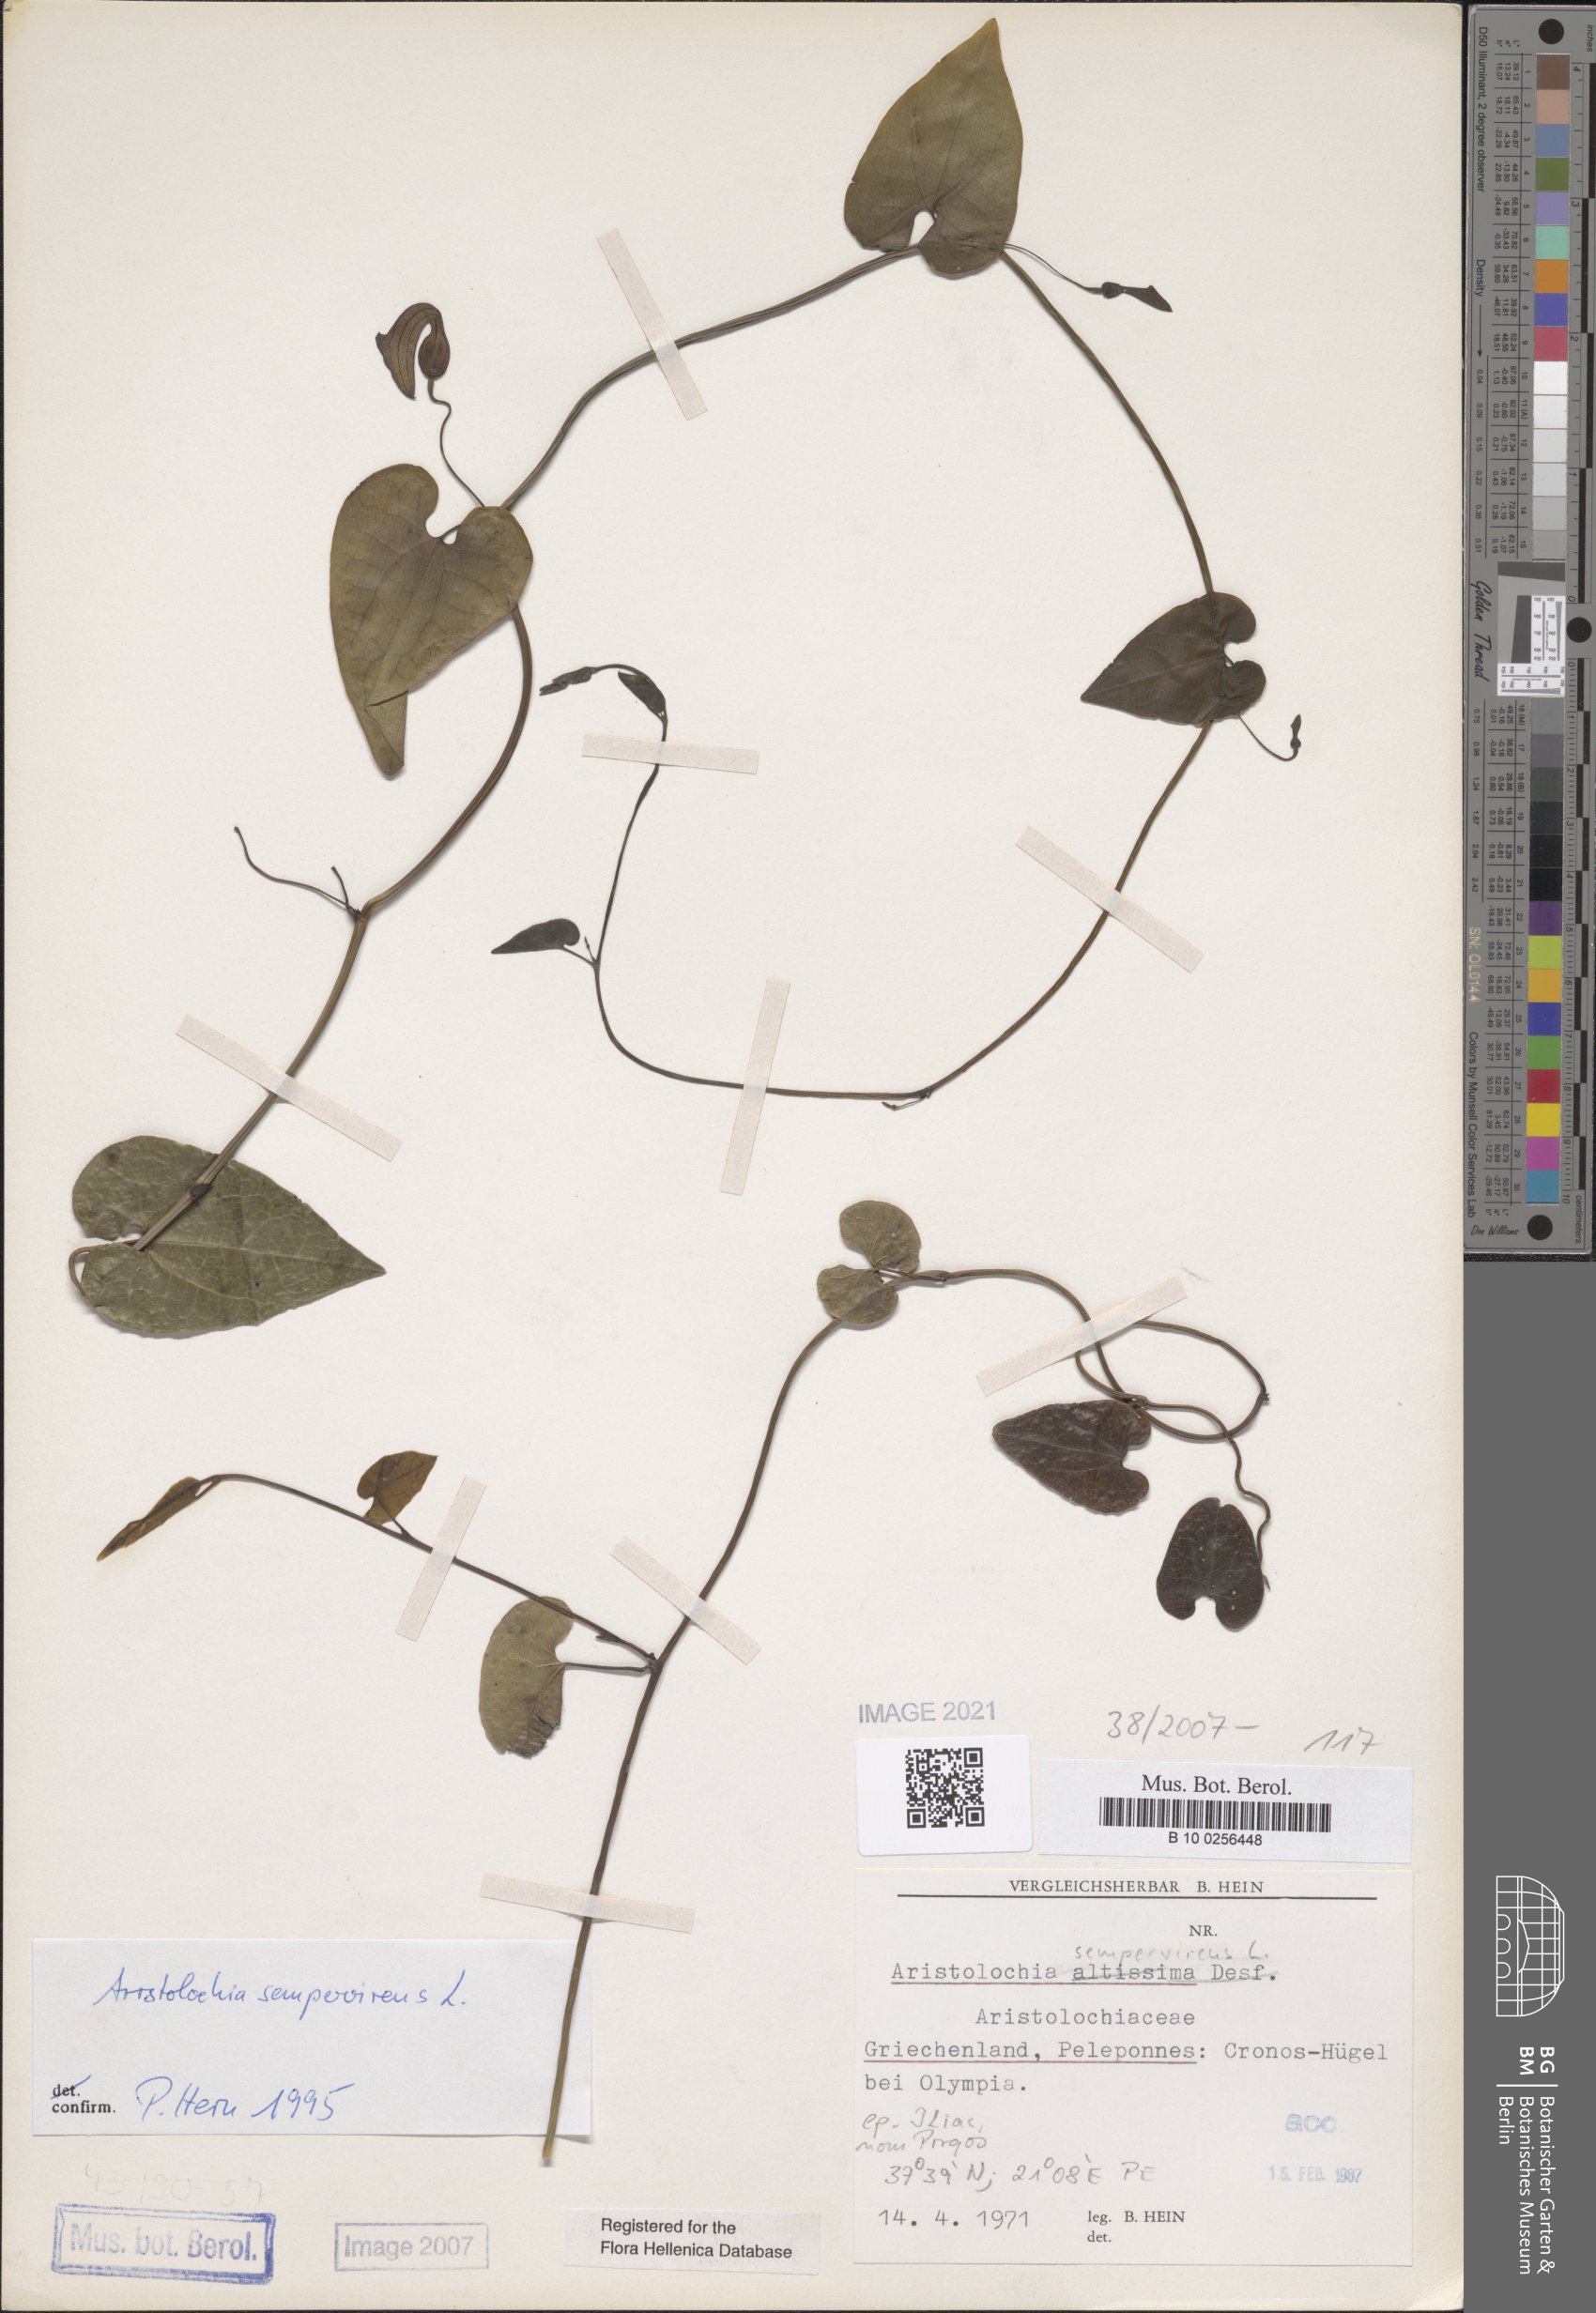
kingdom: Plantae
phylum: Tracheophyta
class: Magnoliopsida
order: Piperales
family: Aristolochiaceae
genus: Aristolochia
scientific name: Aristolochia sempervirens
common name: Long birthwort
